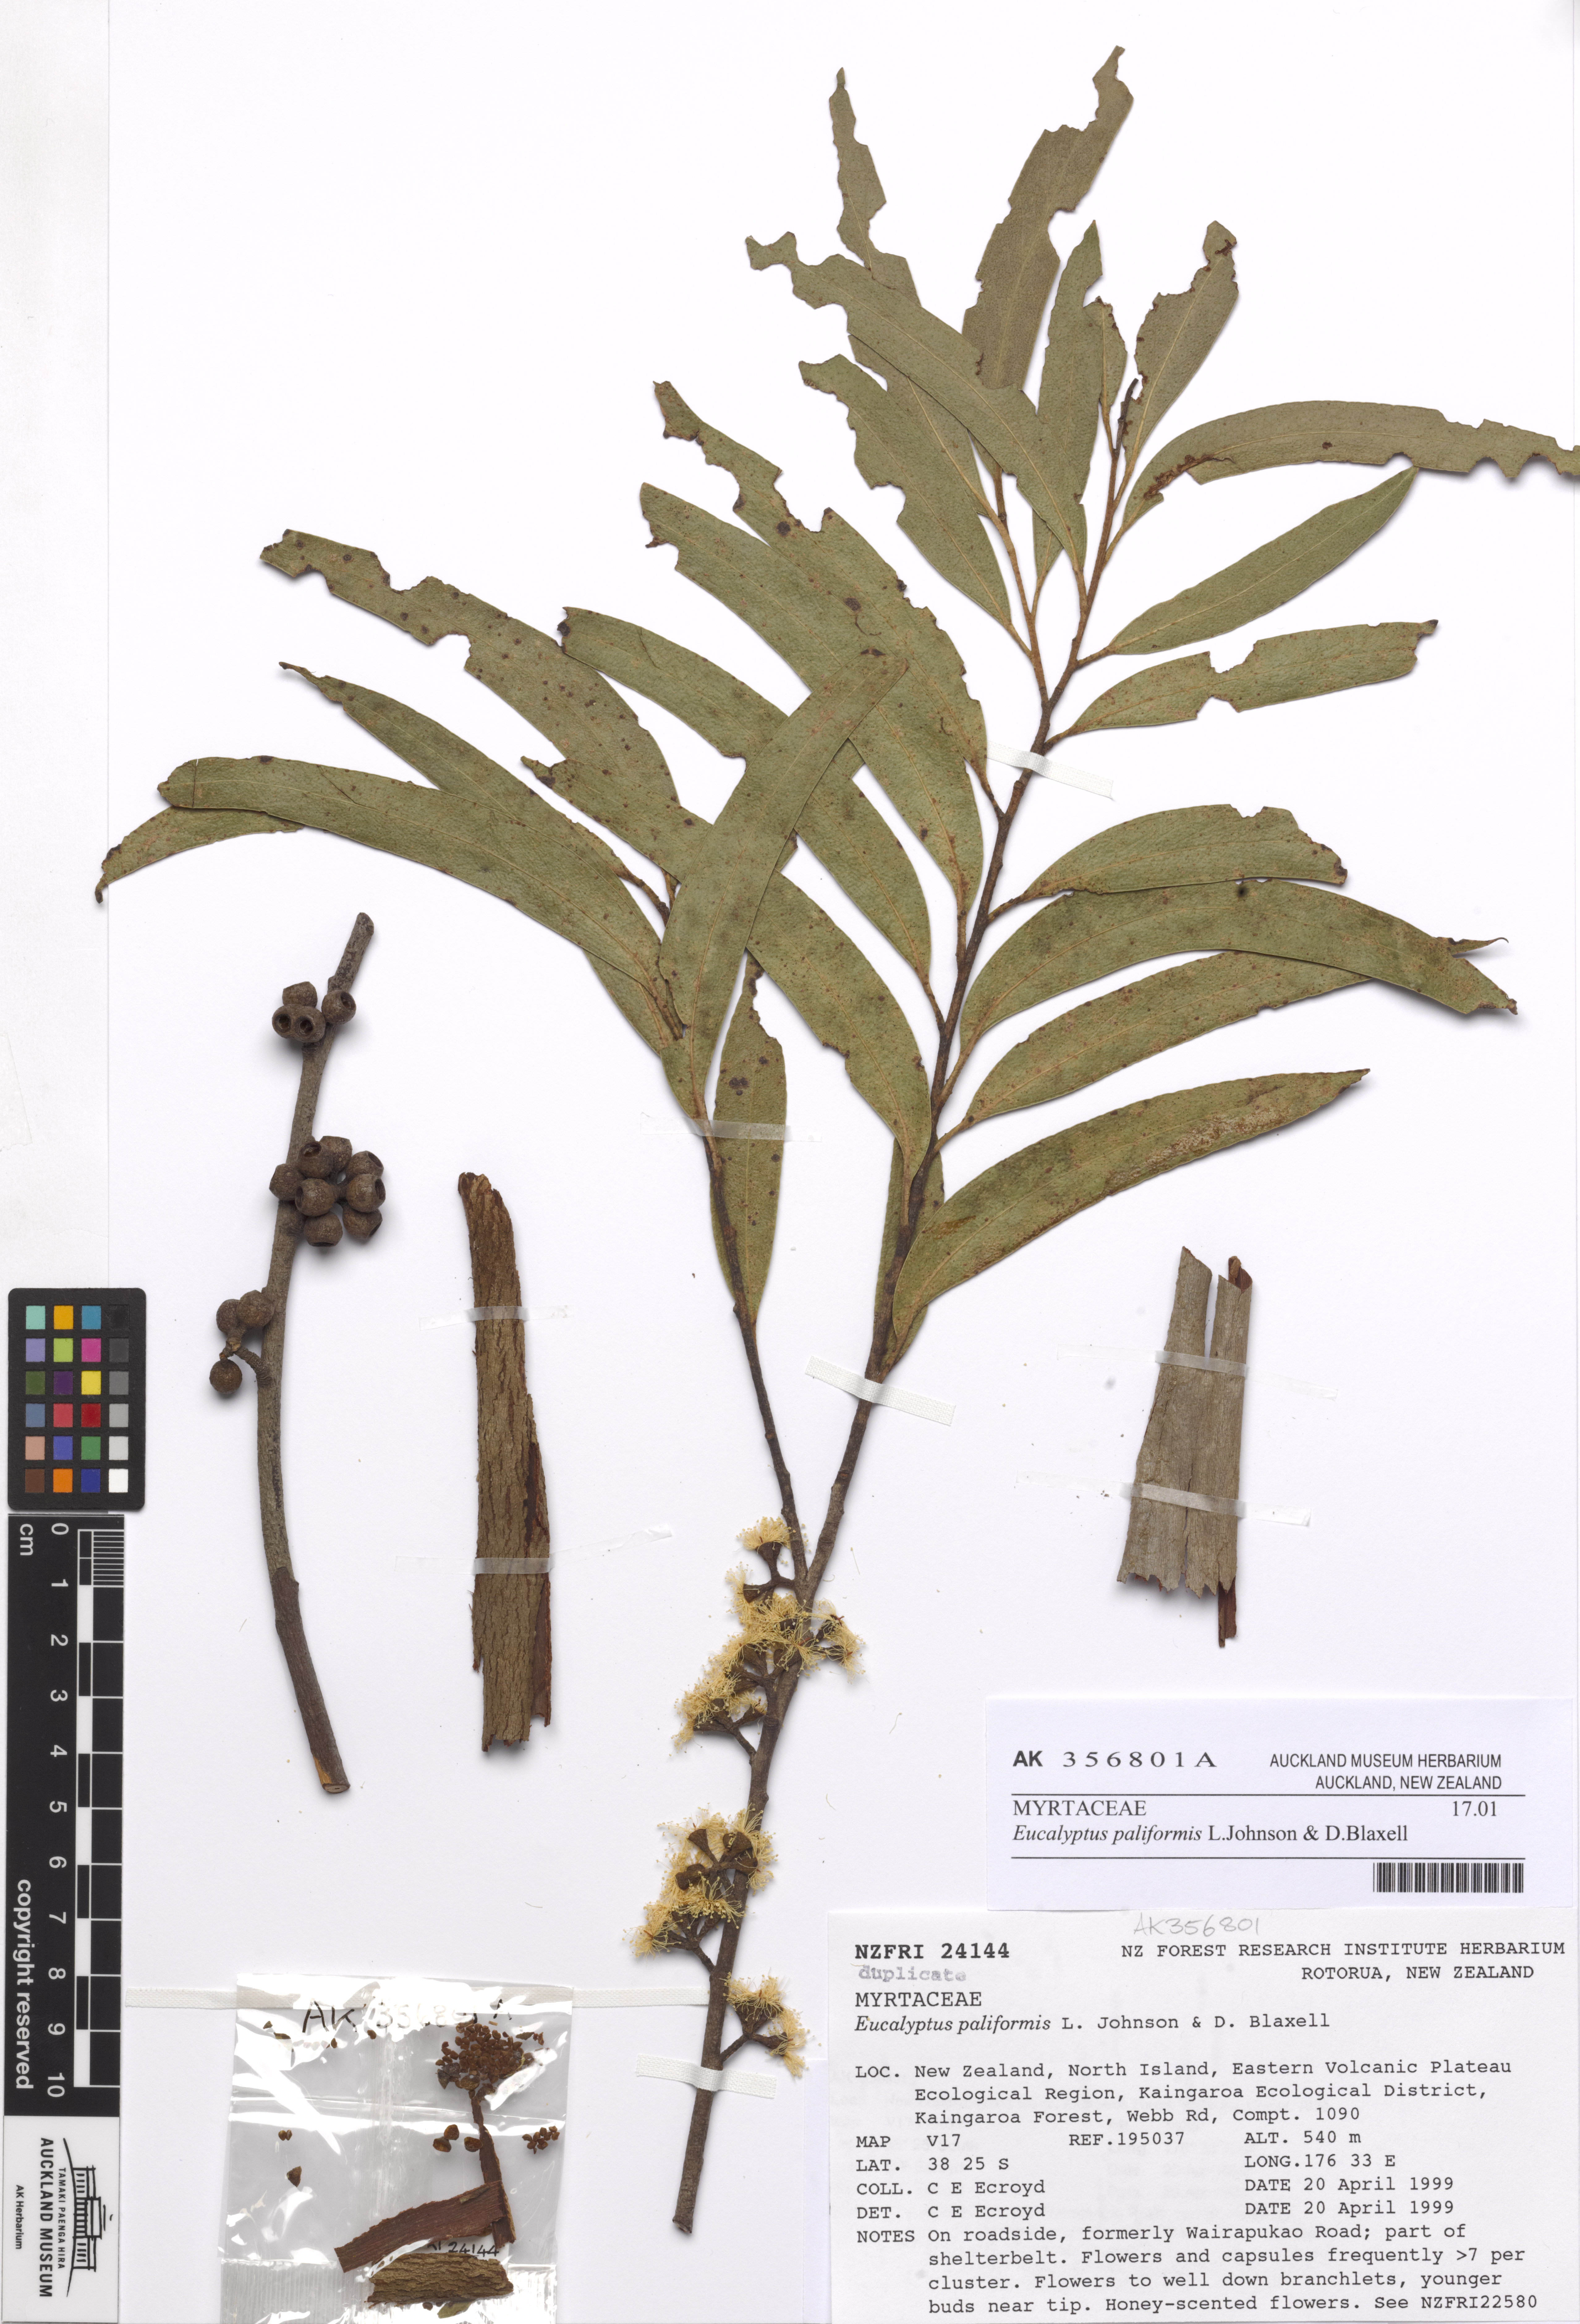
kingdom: Plantae
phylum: Tracheophyta
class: Magnoliopsida
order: Myrtales
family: Myrtaceae
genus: Eucalyptus
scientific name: Eucalyptus paliformis
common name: Wadbilliga ash
